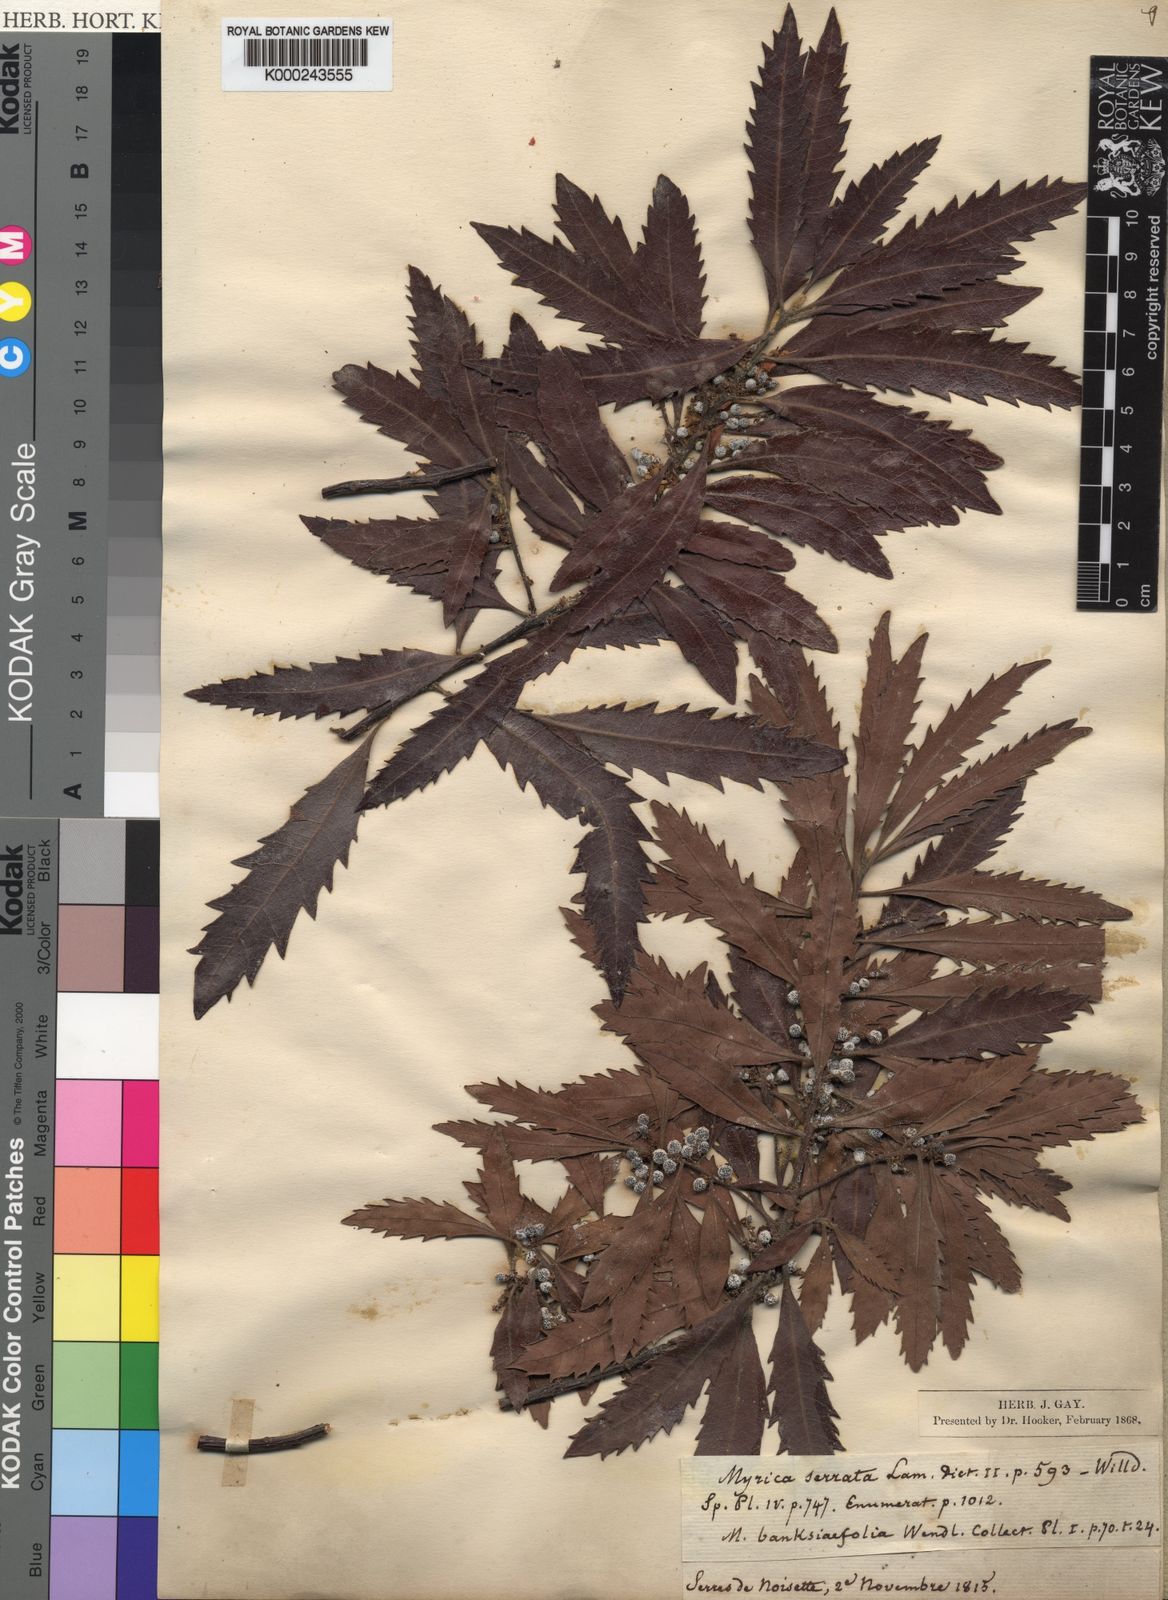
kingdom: Plantae
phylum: Tracheophyta
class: Magnoliopsida
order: Fagales
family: Myricaceae
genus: Morella
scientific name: Morella serrata
